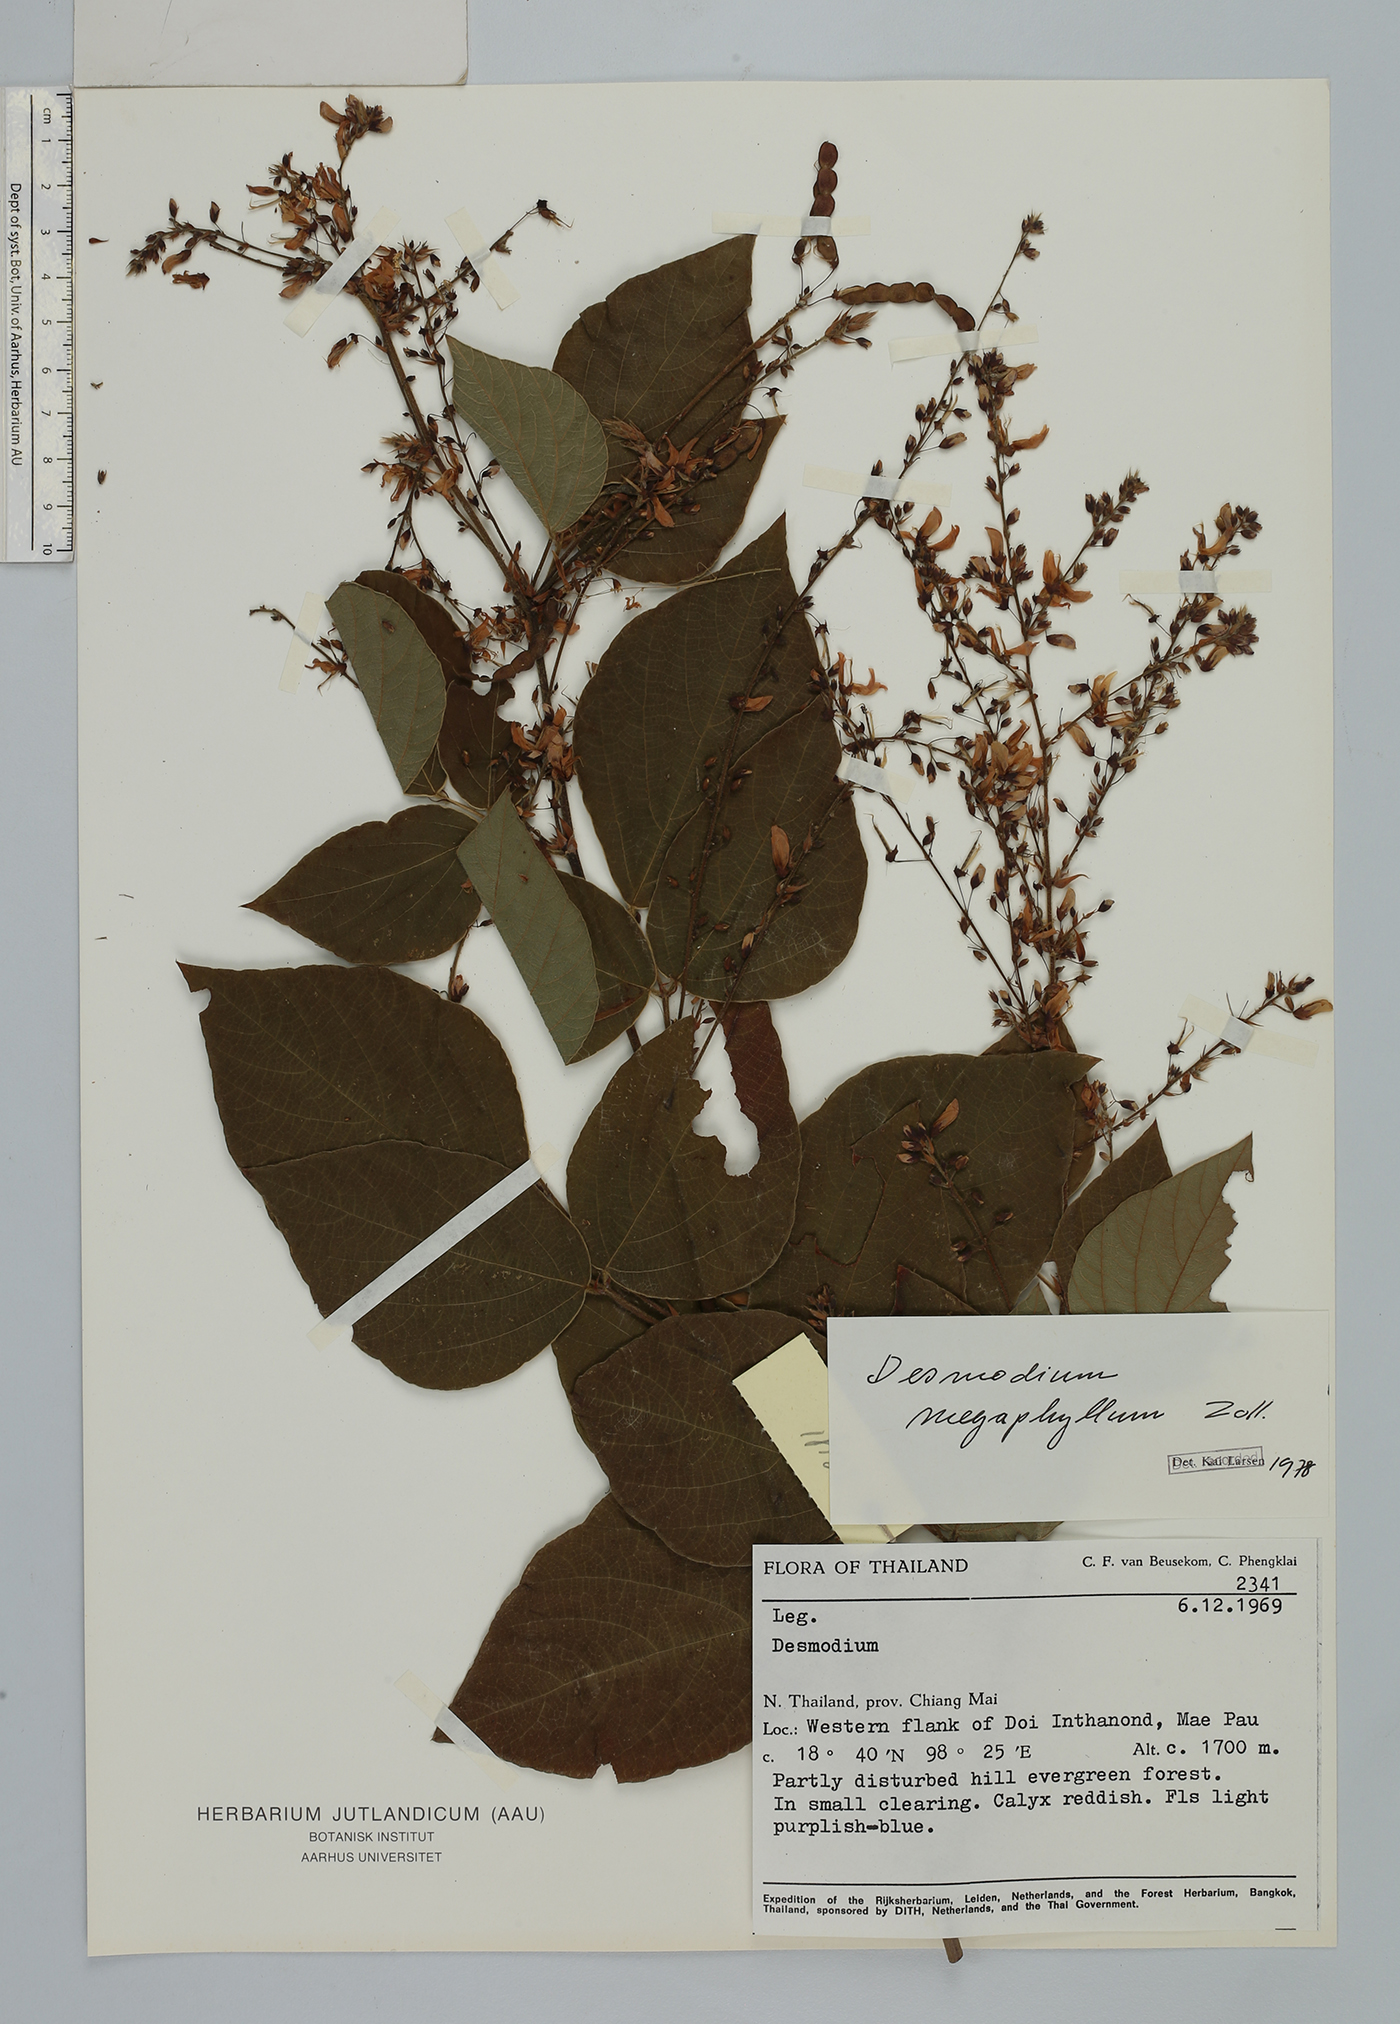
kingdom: Plantae
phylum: Tracheophyta
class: Magnoliopsida
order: Fabales
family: Fabaceae
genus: Puhuaea
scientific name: Puhuaea megaphylla
